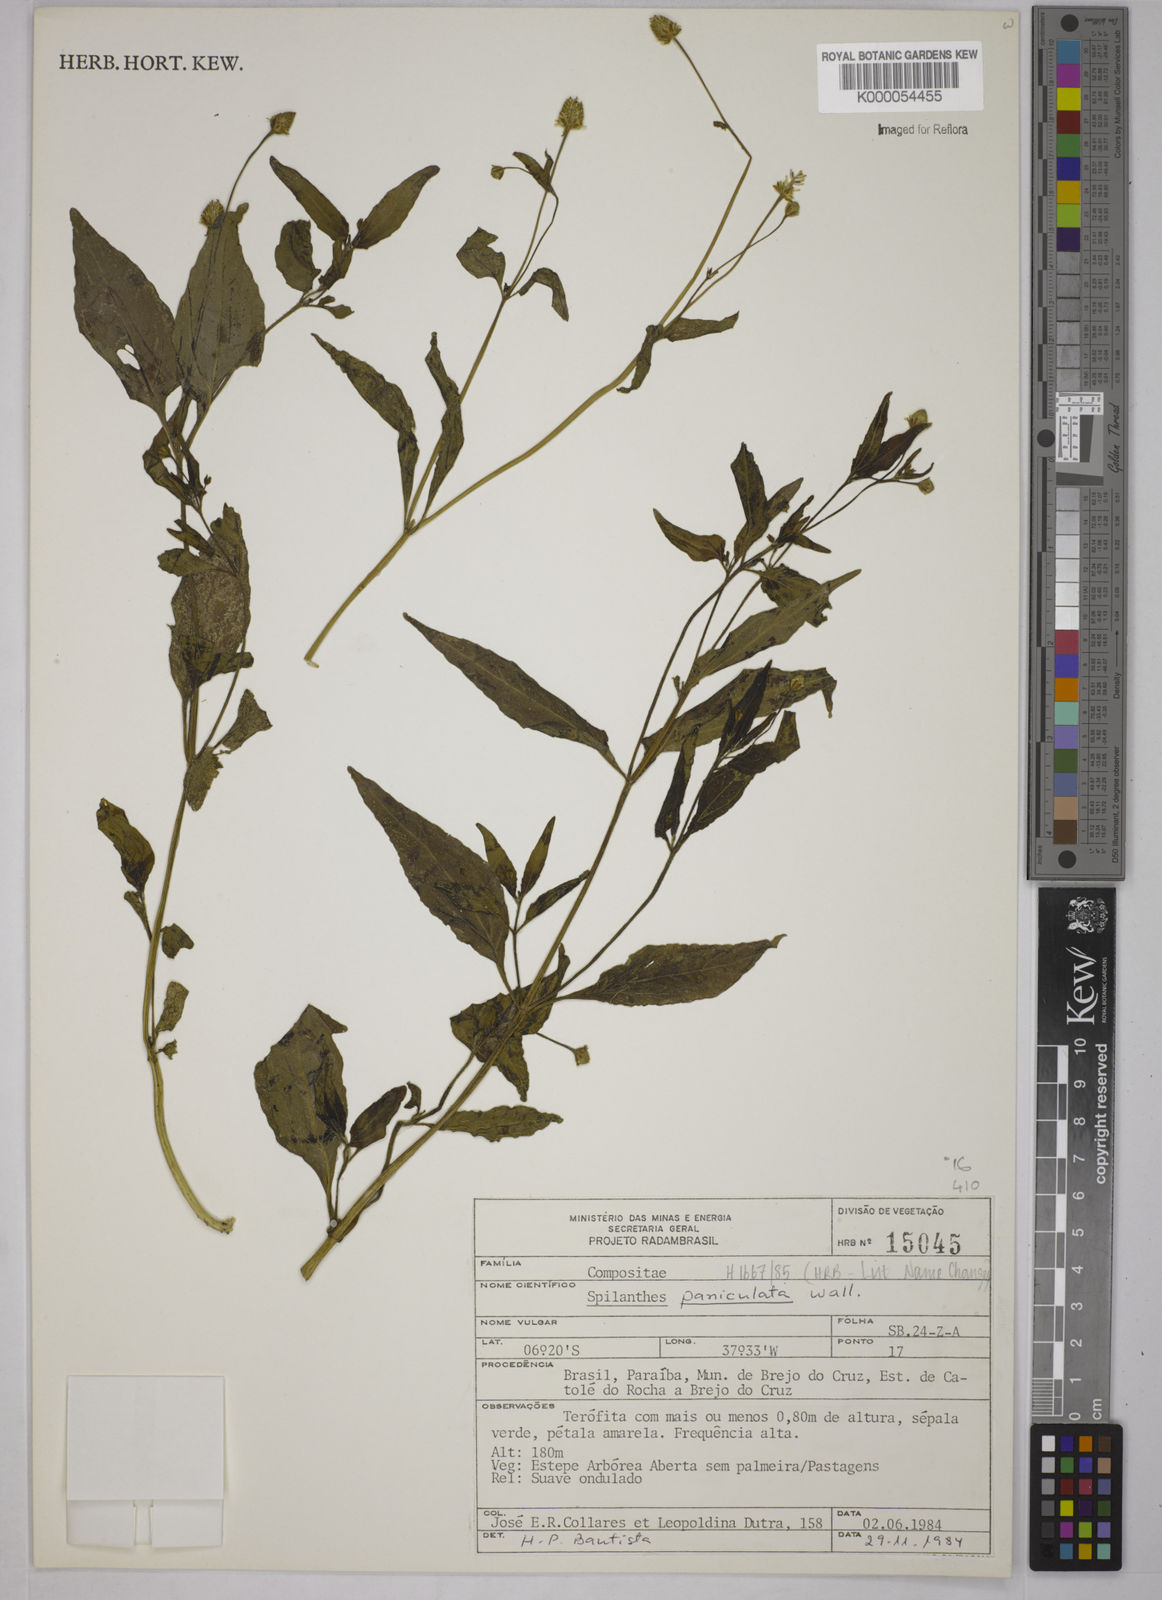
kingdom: Plantae
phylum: Tracheophyta
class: Magnoliopsida
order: Asterales
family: Asteraceae
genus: Acmella
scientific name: Acmella paniculata
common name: Panicled spot flower
